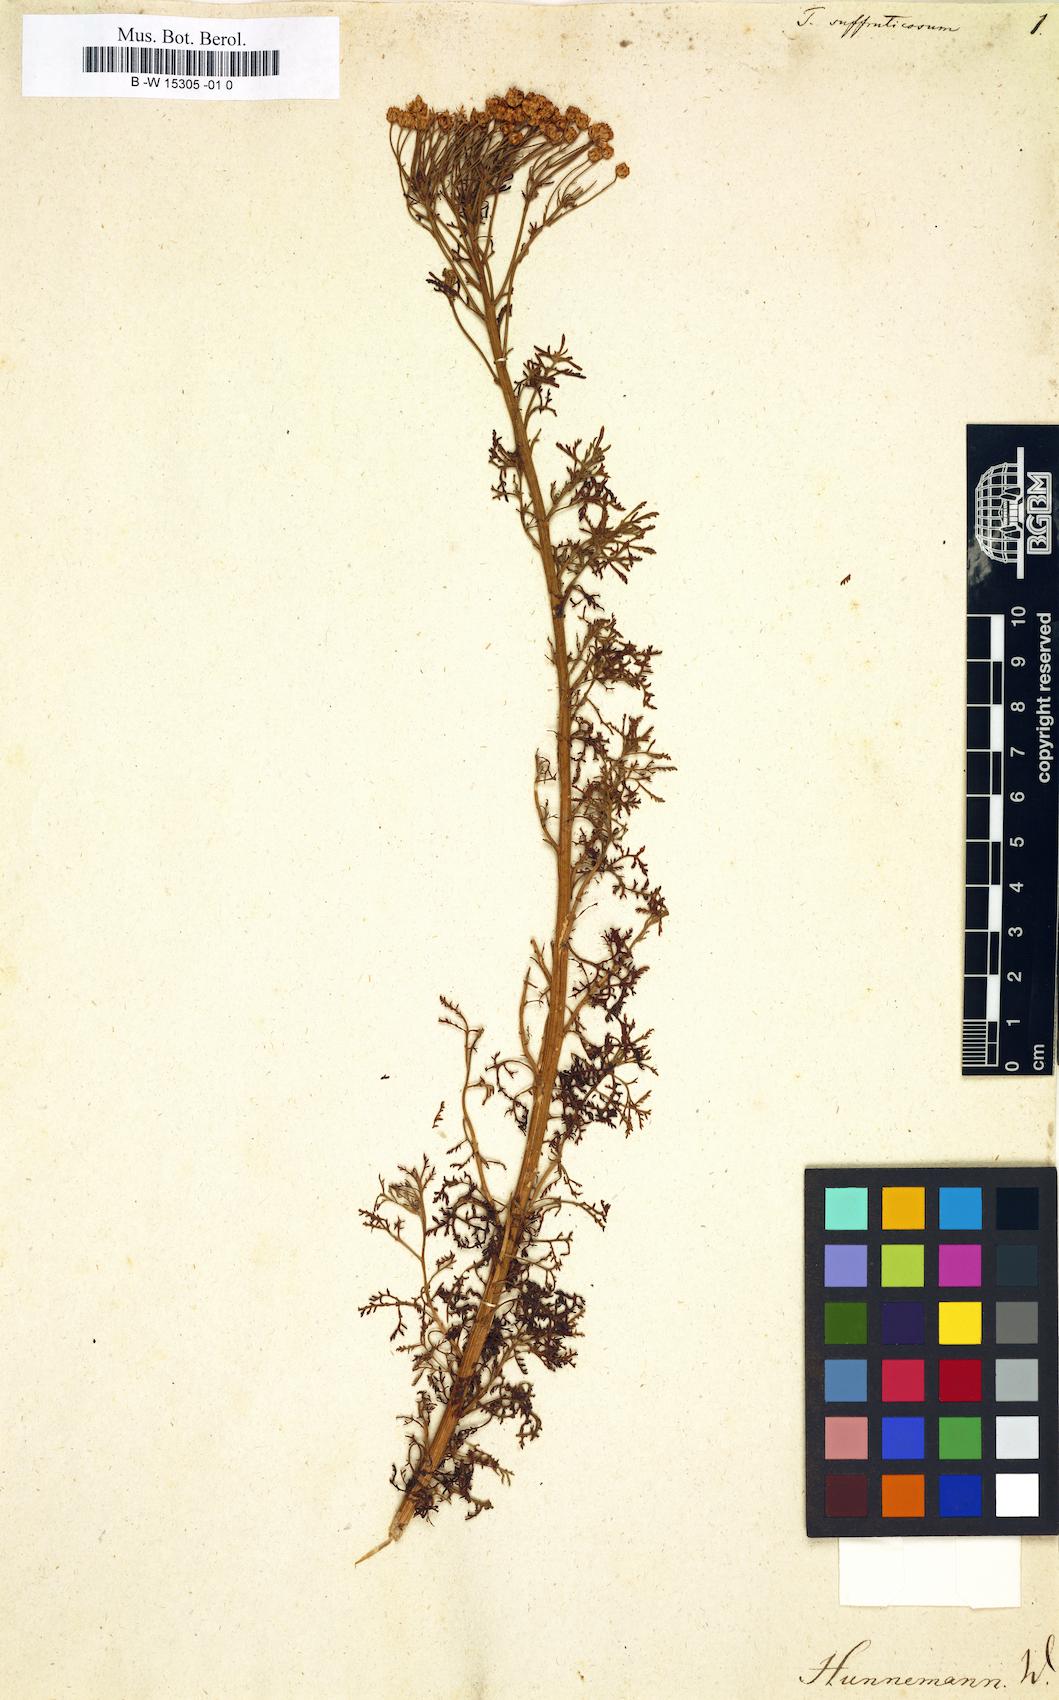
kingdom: Plantae
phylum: Tracheophyta
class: Magnoliopsida
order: Asterales
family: Asteraceae
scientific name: Asteraceae
